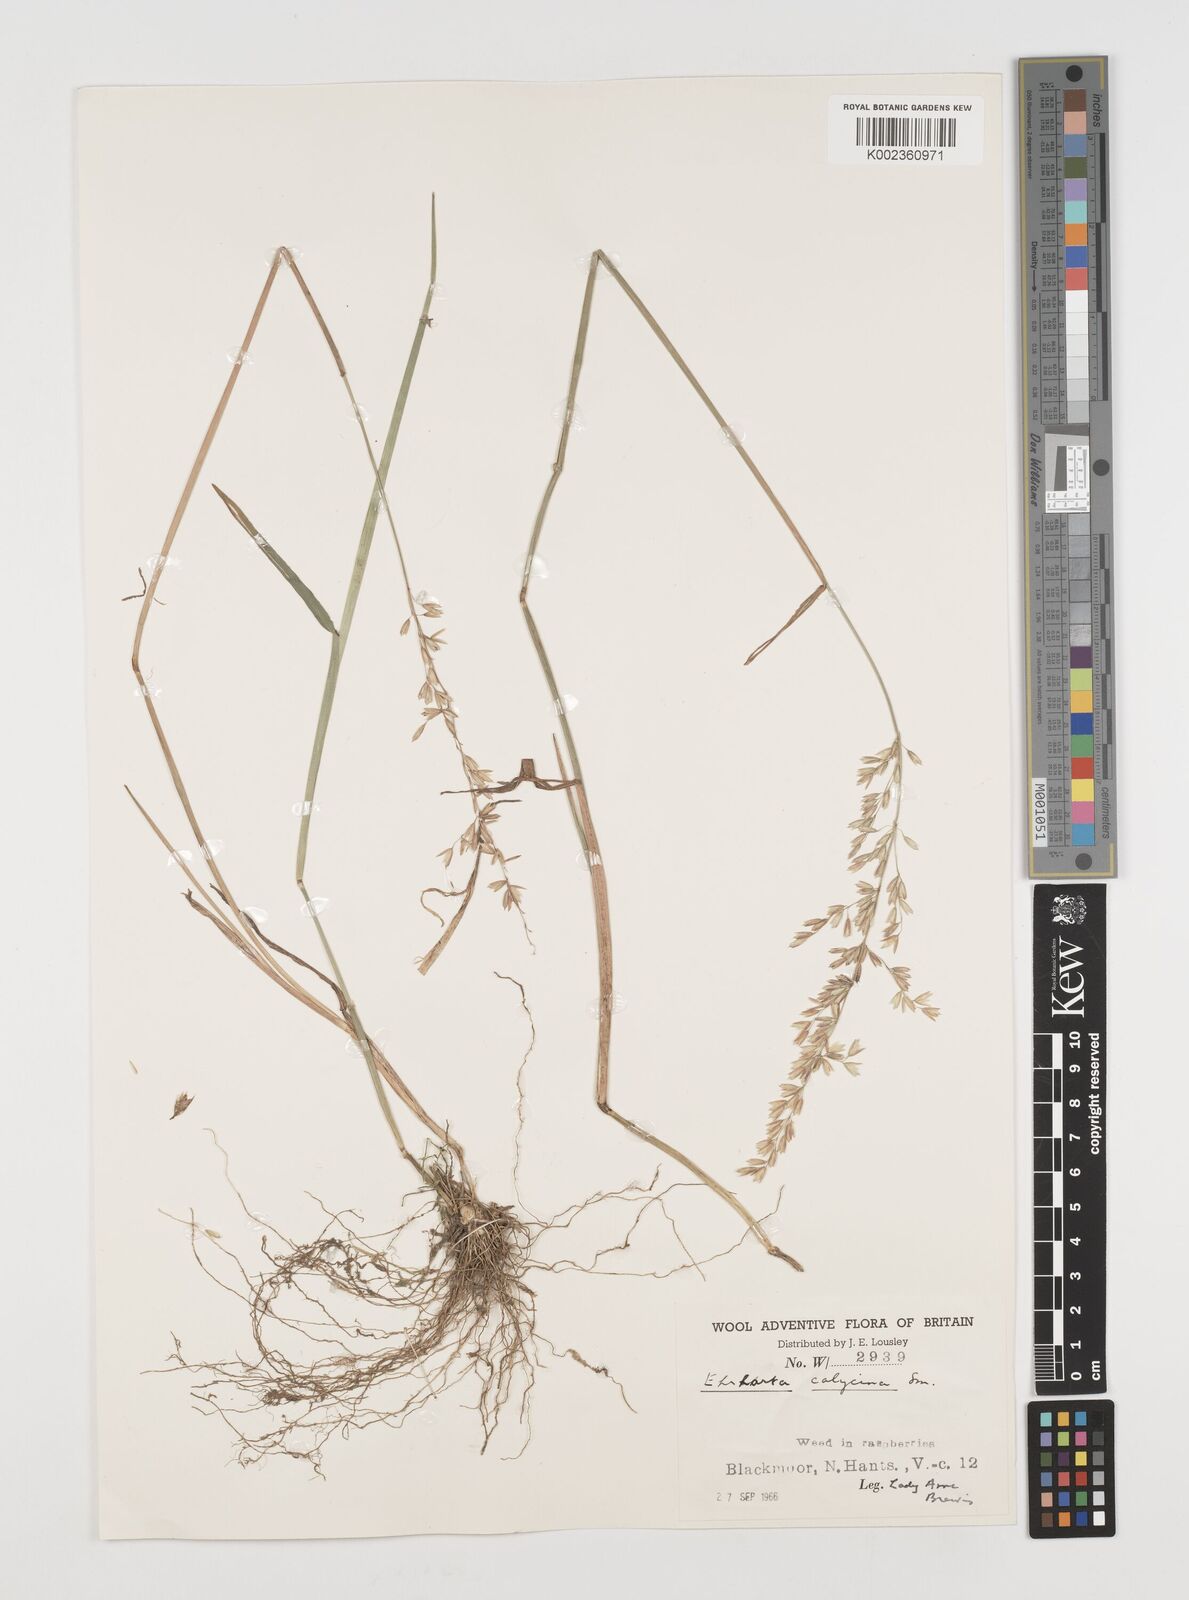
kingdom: Plantae
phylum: Tracheophyta
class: Liliopsida
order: Poales
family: Poaceae
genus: Ehrharta
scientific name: Ehrharta calycina
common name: Perennial veldtgrass
